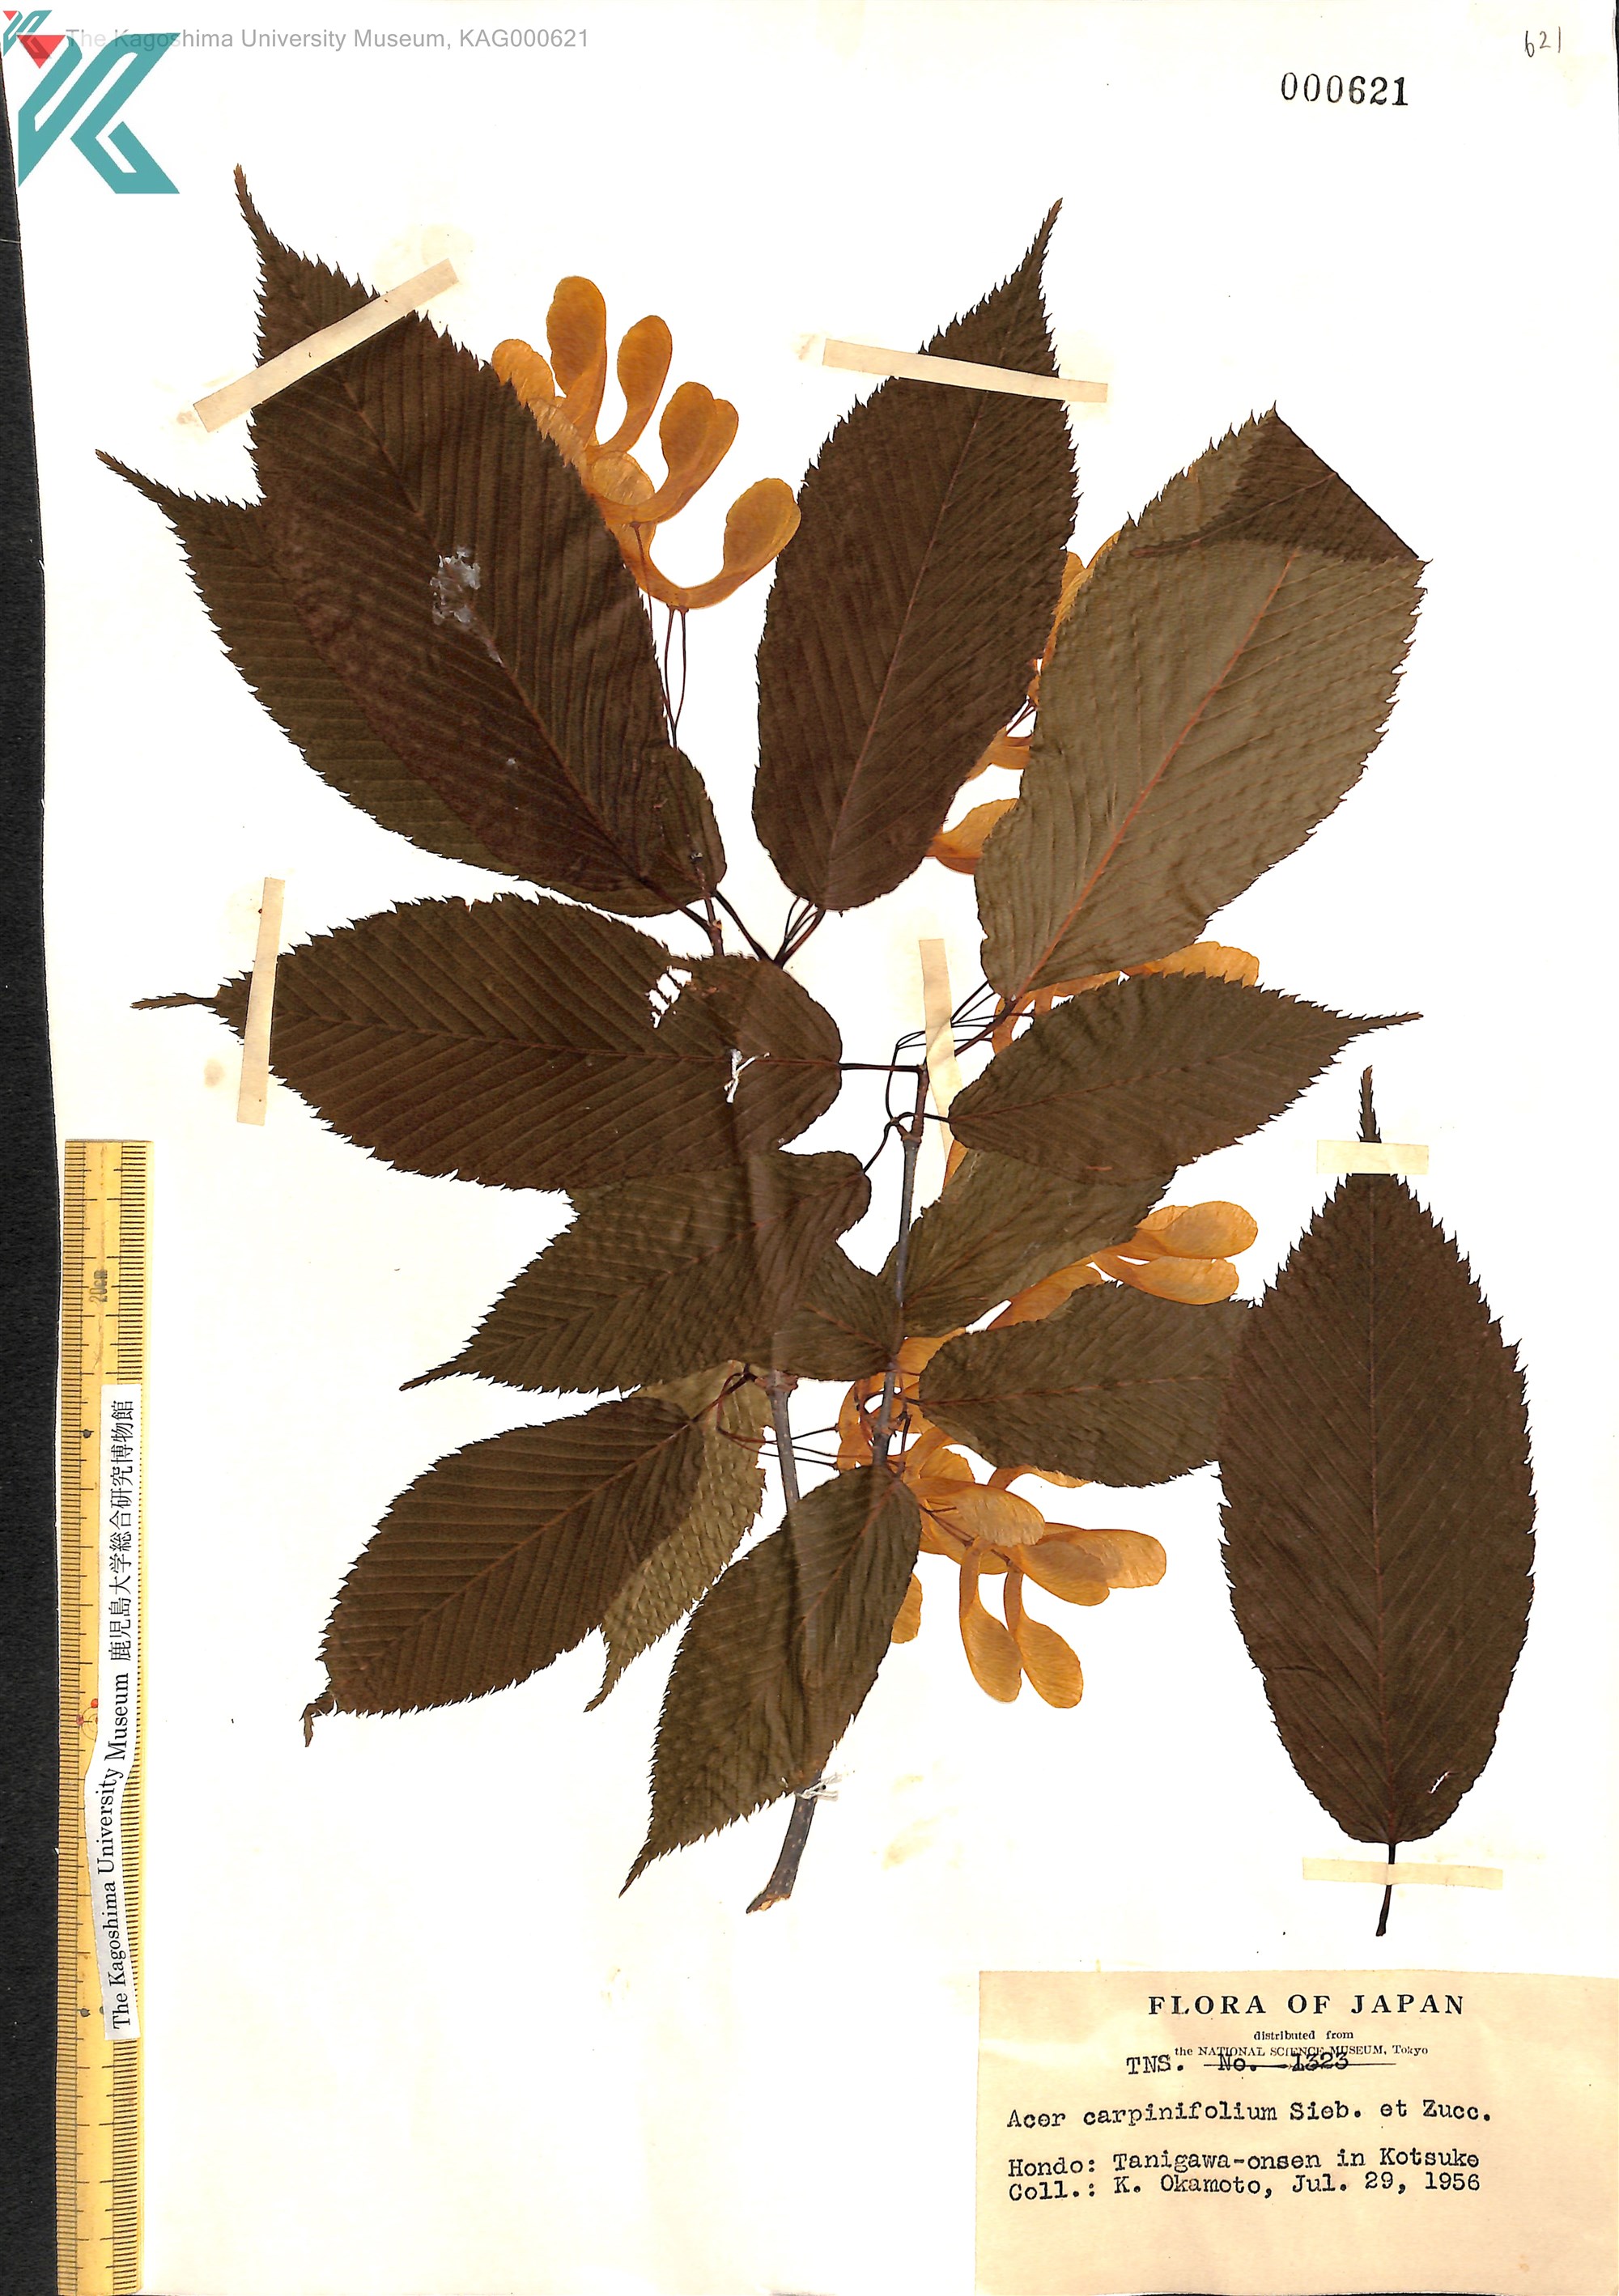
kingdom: Plantae
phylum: Tracheophyta
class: Magnoliopsida
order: Sapindales
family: Sapindaceae
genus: Acer
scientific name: Acer carpinifolium
